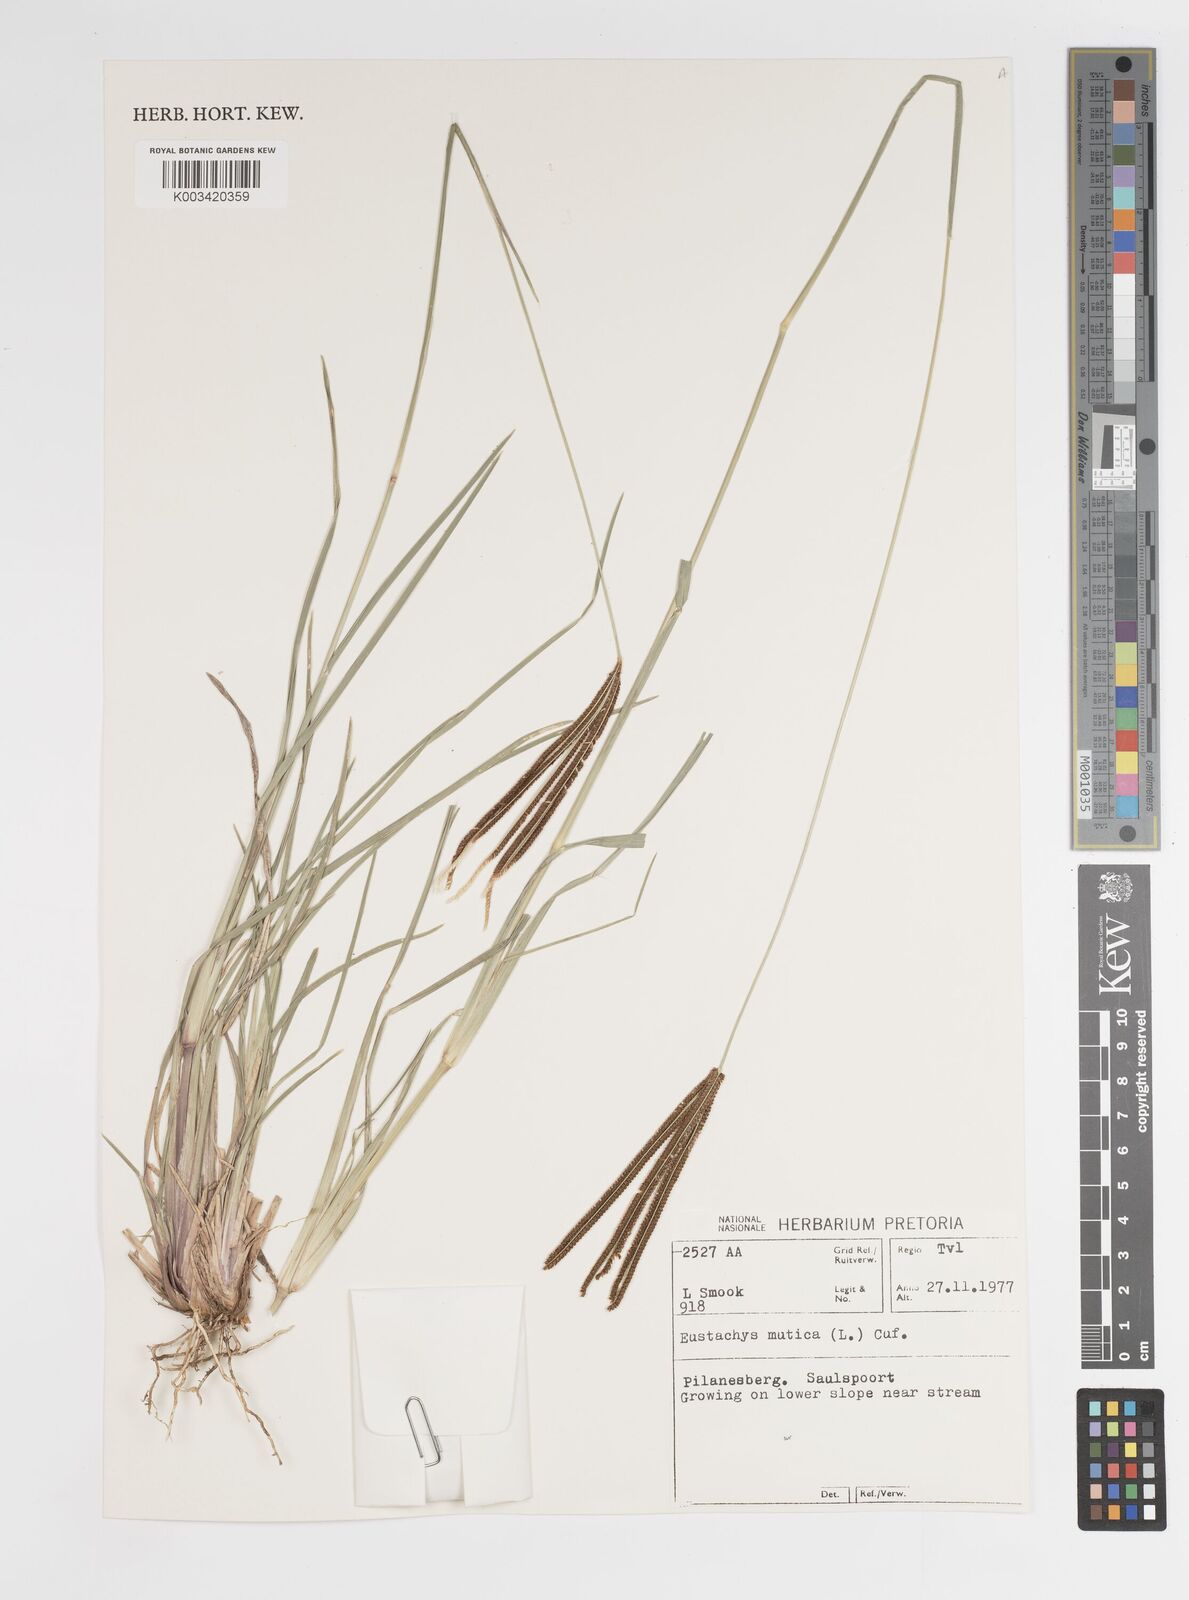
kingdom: Plantae
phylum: Tracheophyta
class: Liliopsida
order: Poales
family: Poaceae
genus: Eustachys
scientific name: Eustachys paspaloides
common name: Caribbean fingergrass
